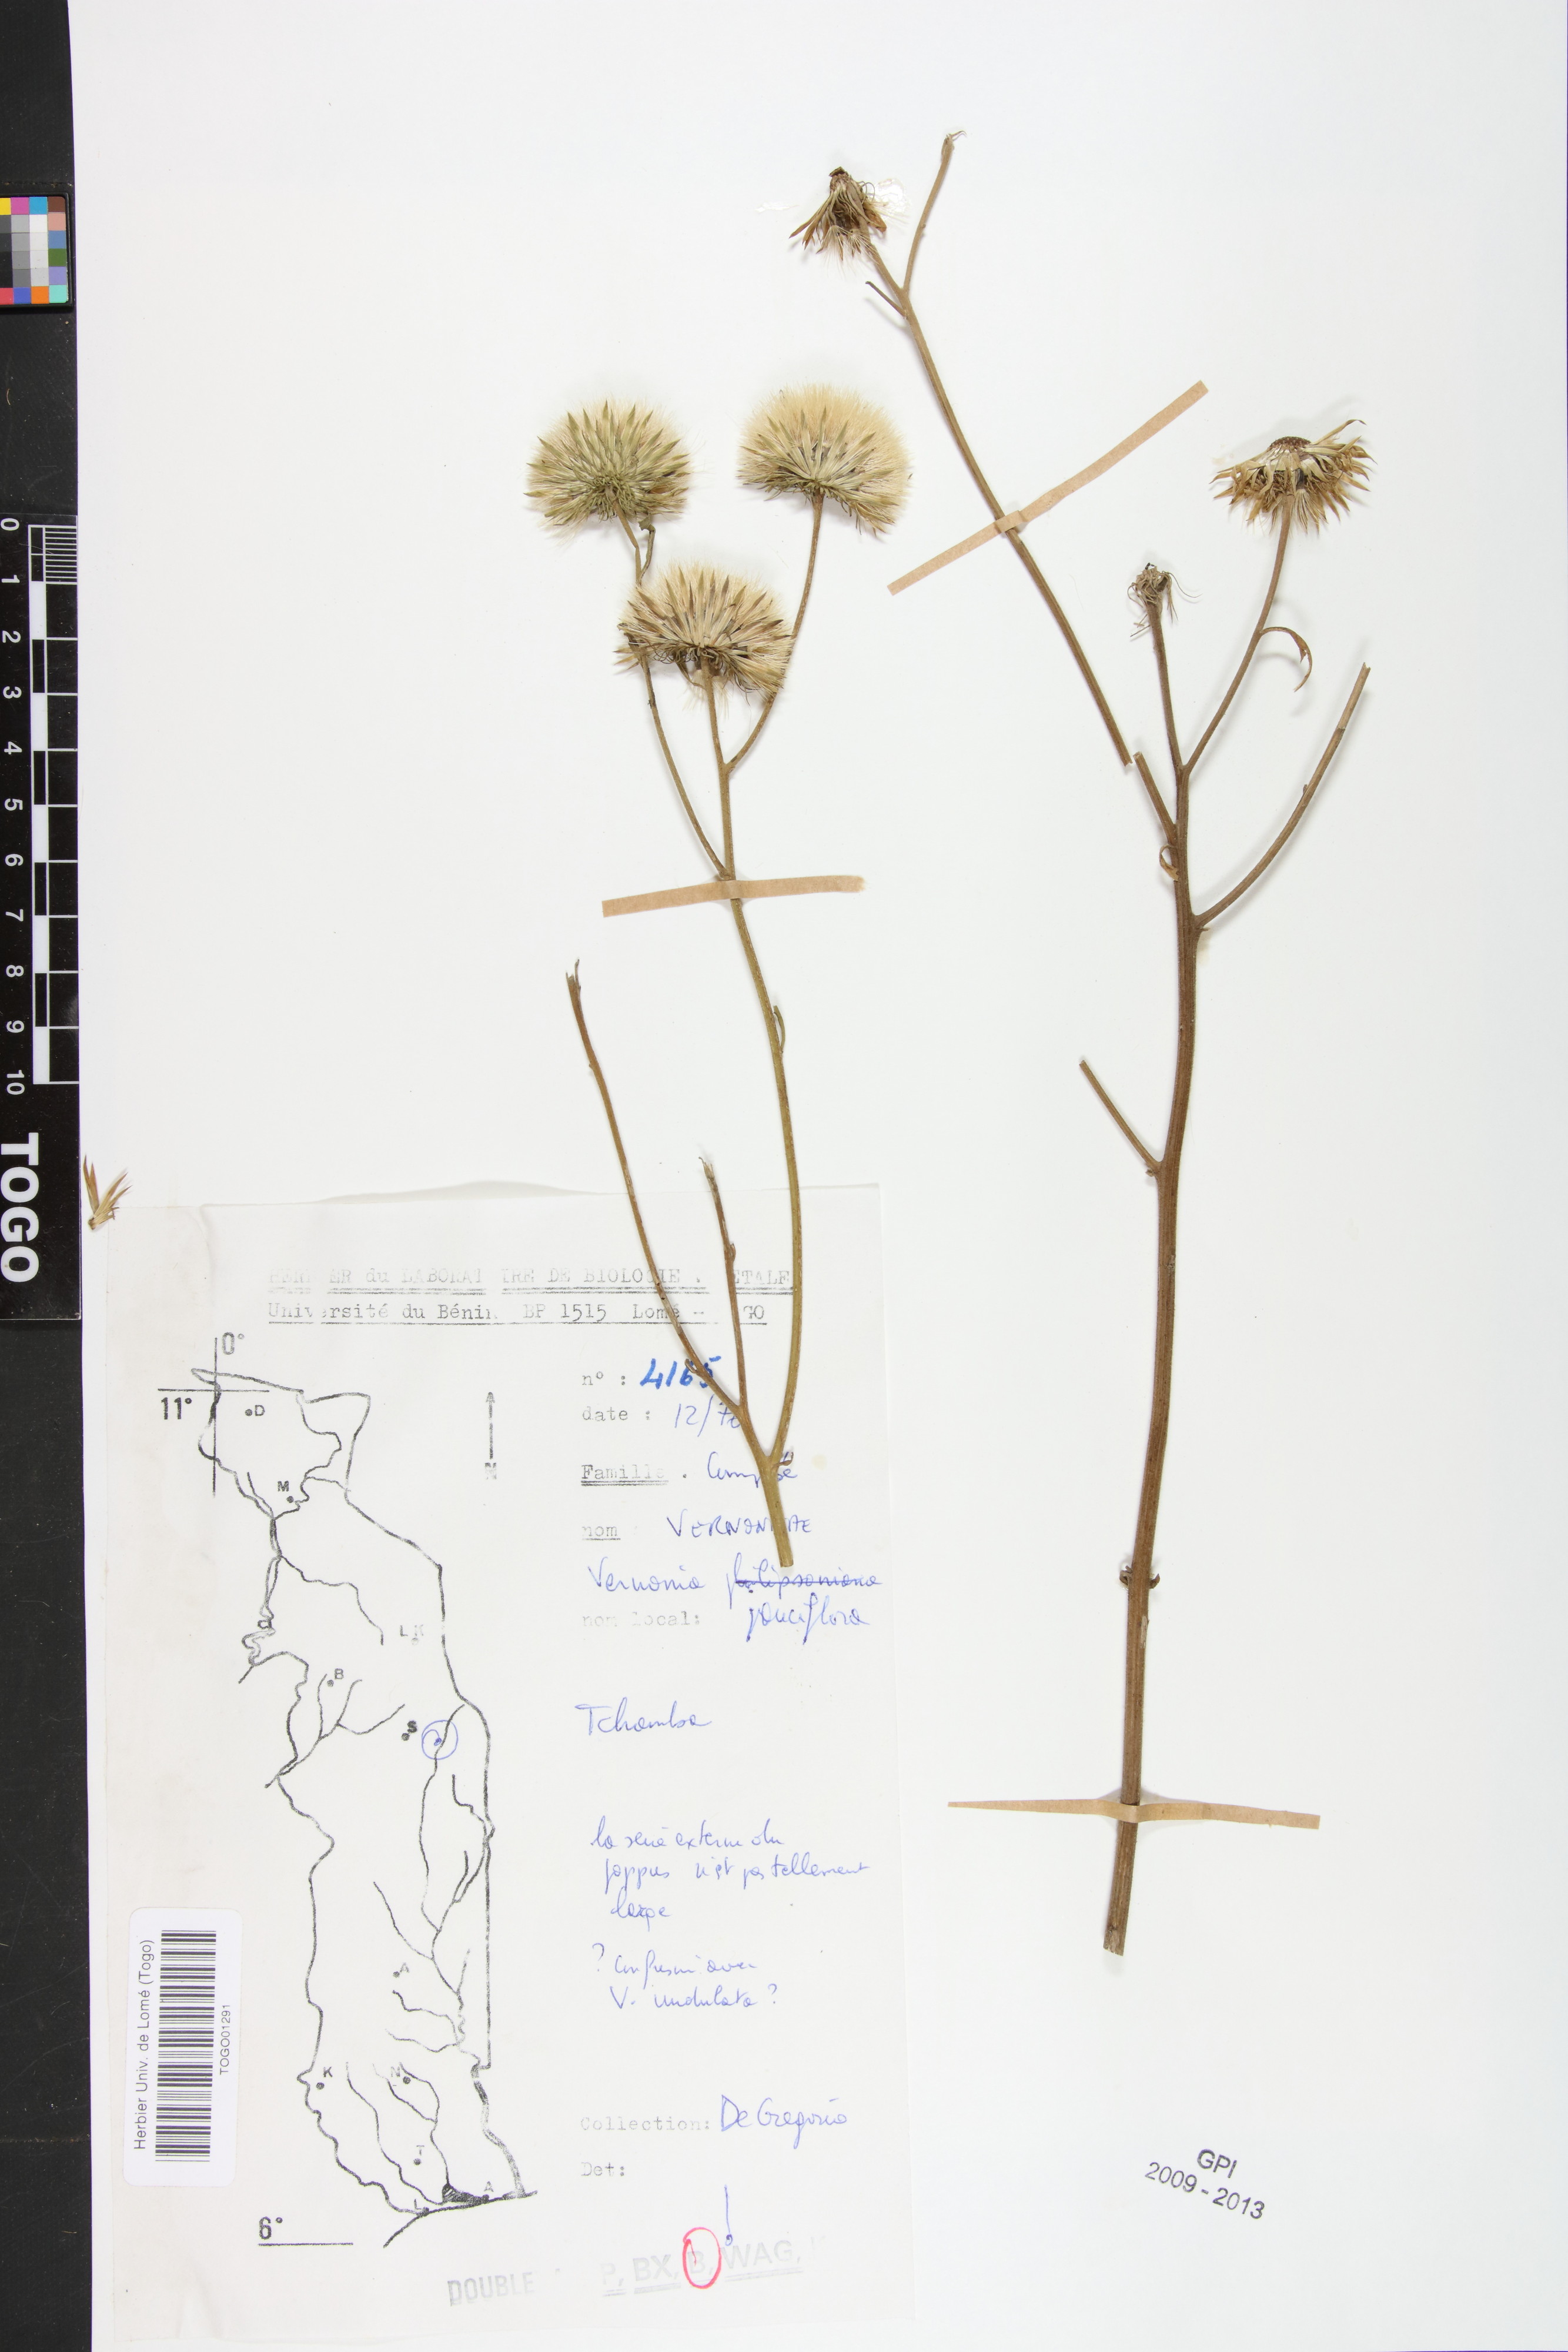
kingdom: Plantae
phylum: Tracheophyta
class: Magnoliopsida
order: Asterales
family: Asteraceae
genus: Vernonia
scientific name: Vernonia galamensis
